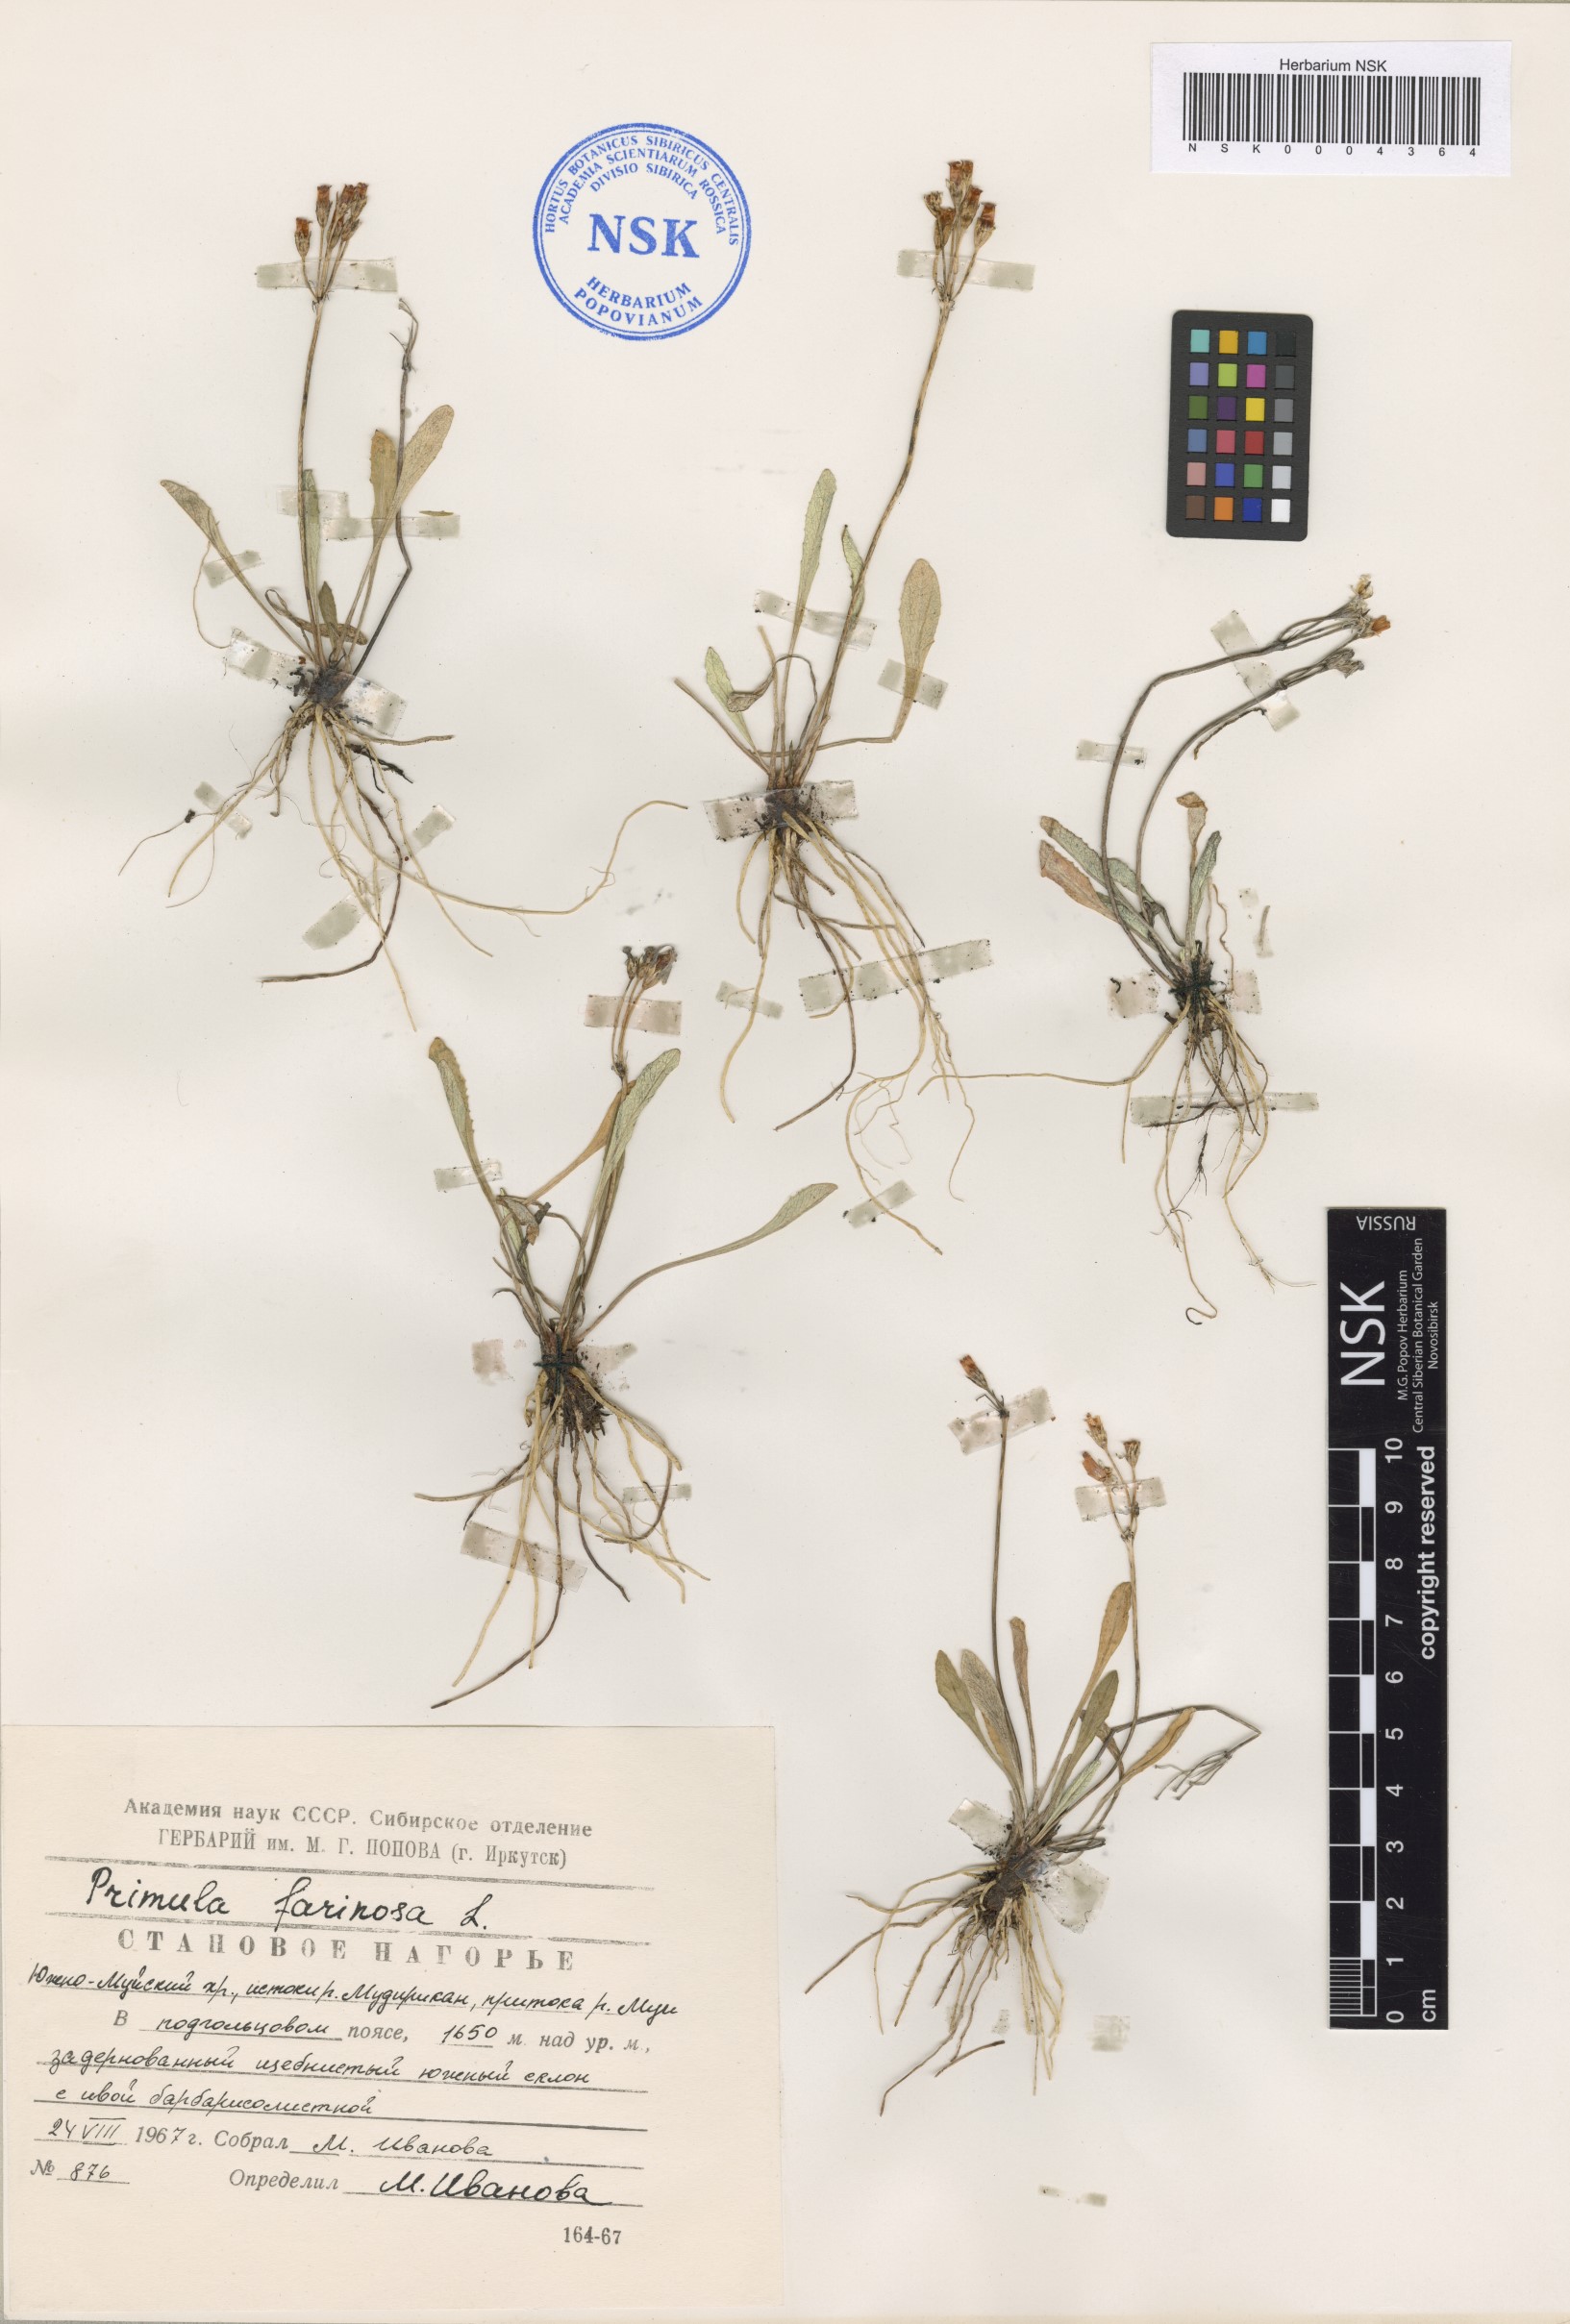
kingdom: Plantae
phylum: Tracheophyta
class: Magnoliopsida
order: Ericales
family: Primulaceae
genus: Primula
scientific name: Primula farinosa
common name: Bird's-eye primrose
